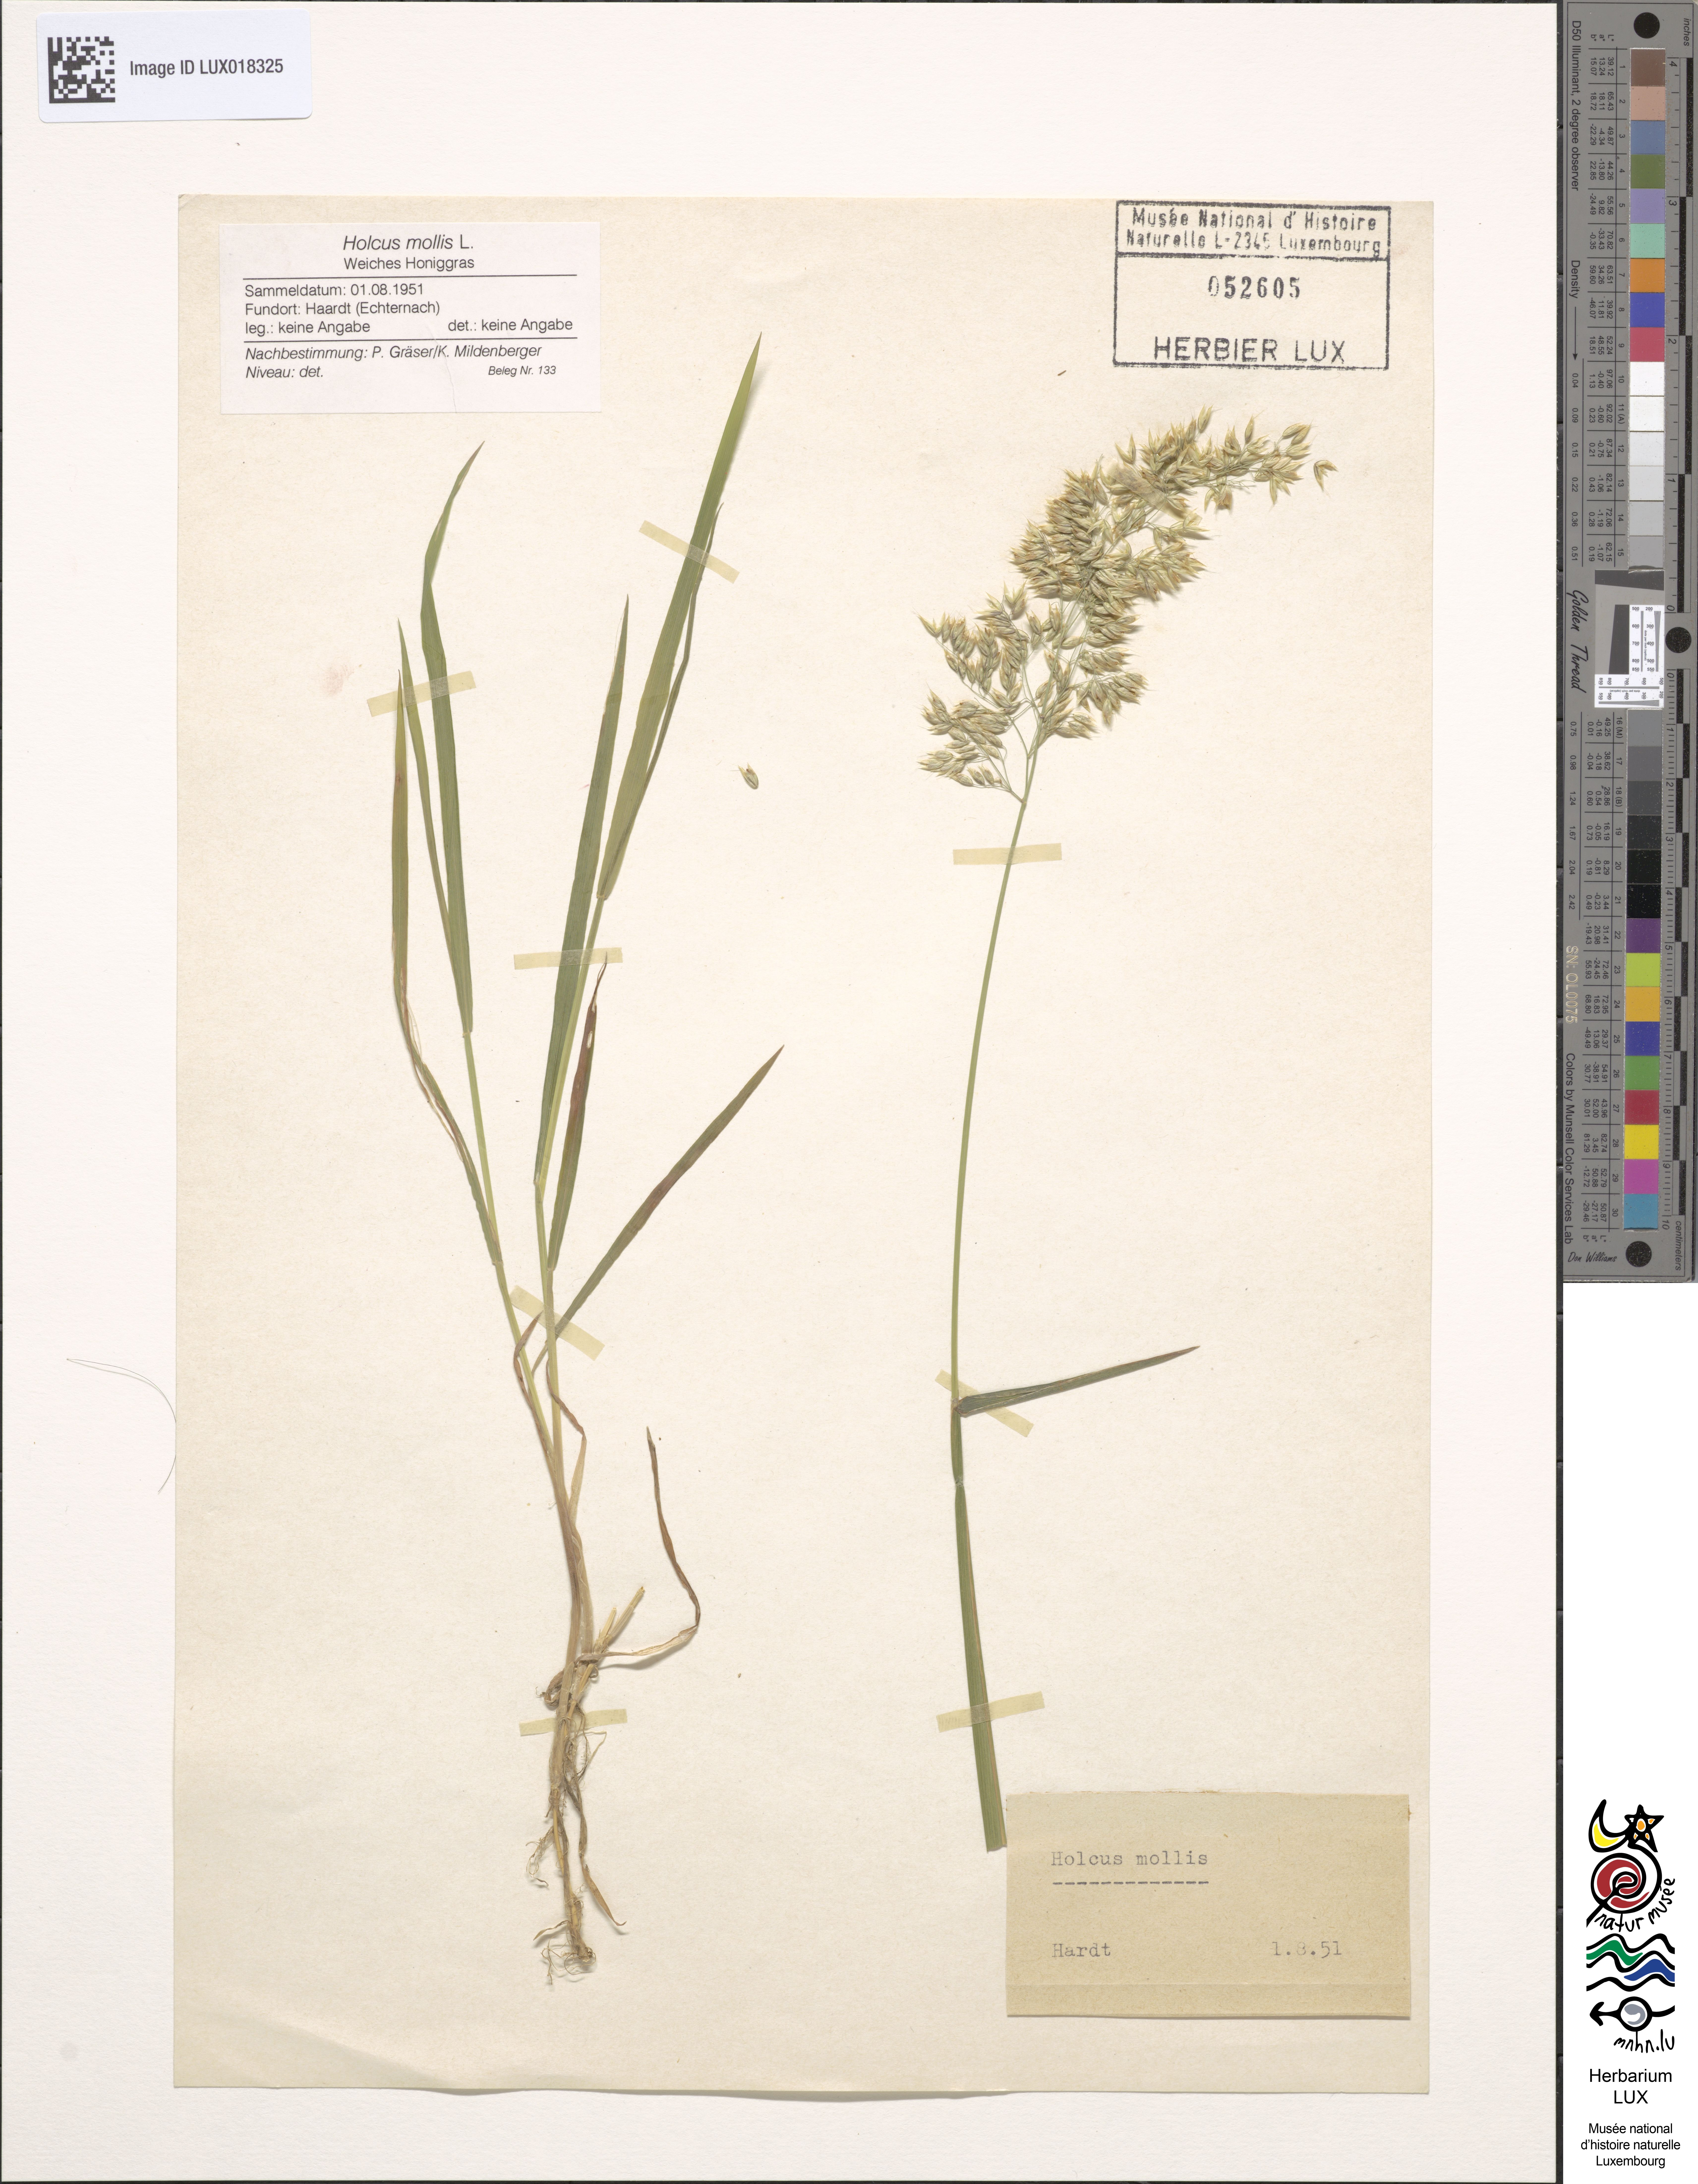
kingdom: Plantae
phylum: Tracheophyta
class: Liliopsida
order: Poales
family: Poaceae
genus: Holcus
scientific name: Holcus mollis
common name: Creeping velvetgrass
